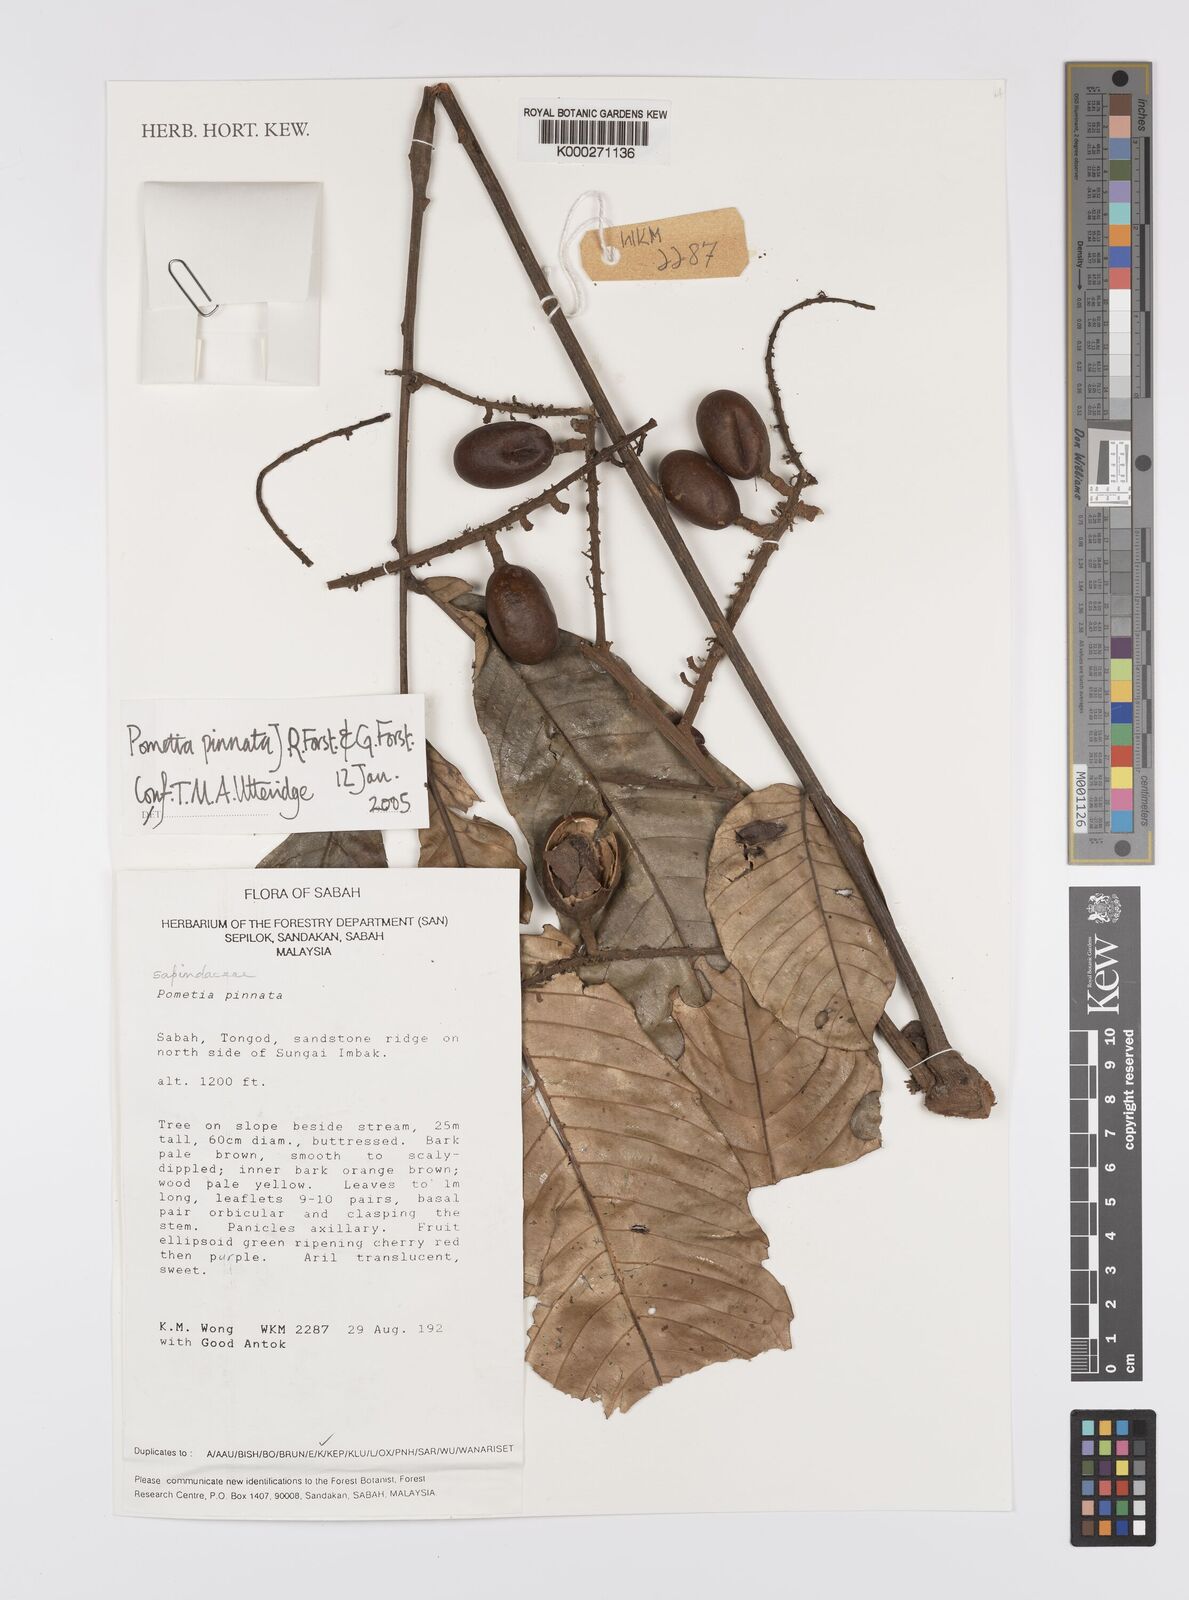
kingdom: Plantae
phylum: Tracheophyta
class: Magnoliopsida
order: Sapindales
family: Sapindaceae
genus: Pometia
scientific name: Pometia pinnata
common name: Oceanic lychee
